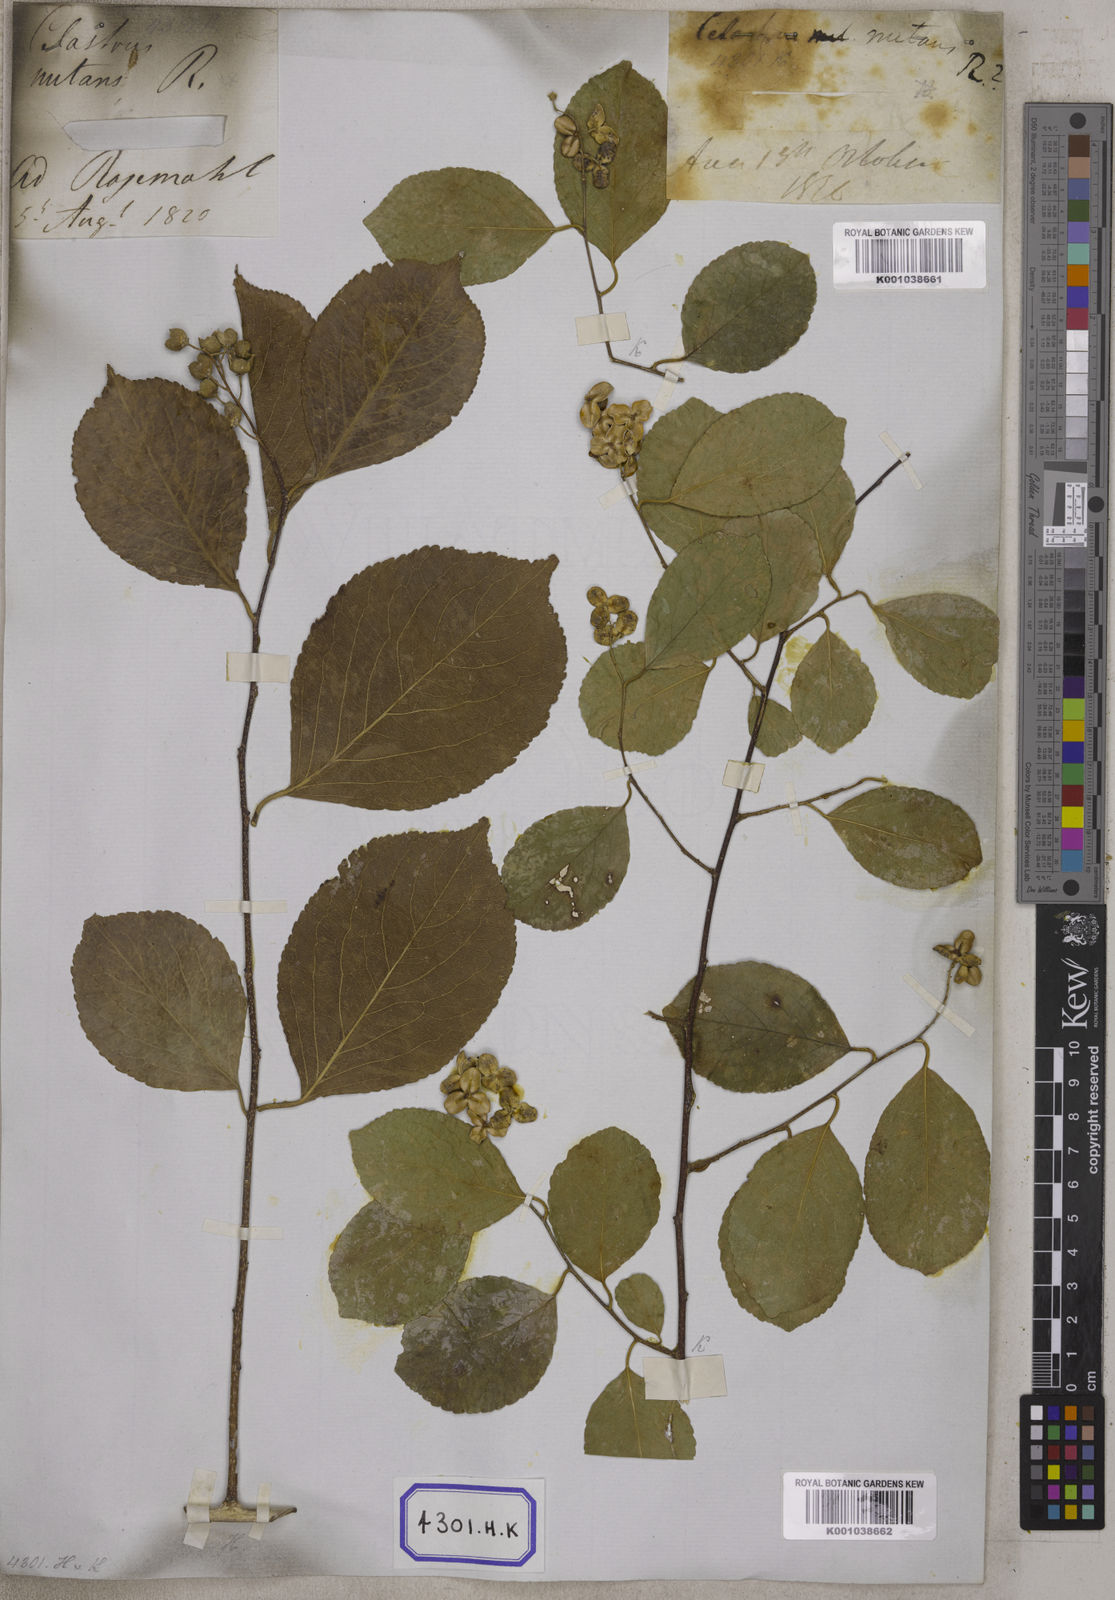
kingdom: Plantae
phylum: Tracheophyta
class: Magnoliopsida
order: Celastrales
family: Celastraceae
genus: Celastrus
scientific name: Celastrus paniculatus
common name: Oriental bittersweet; staff vine
